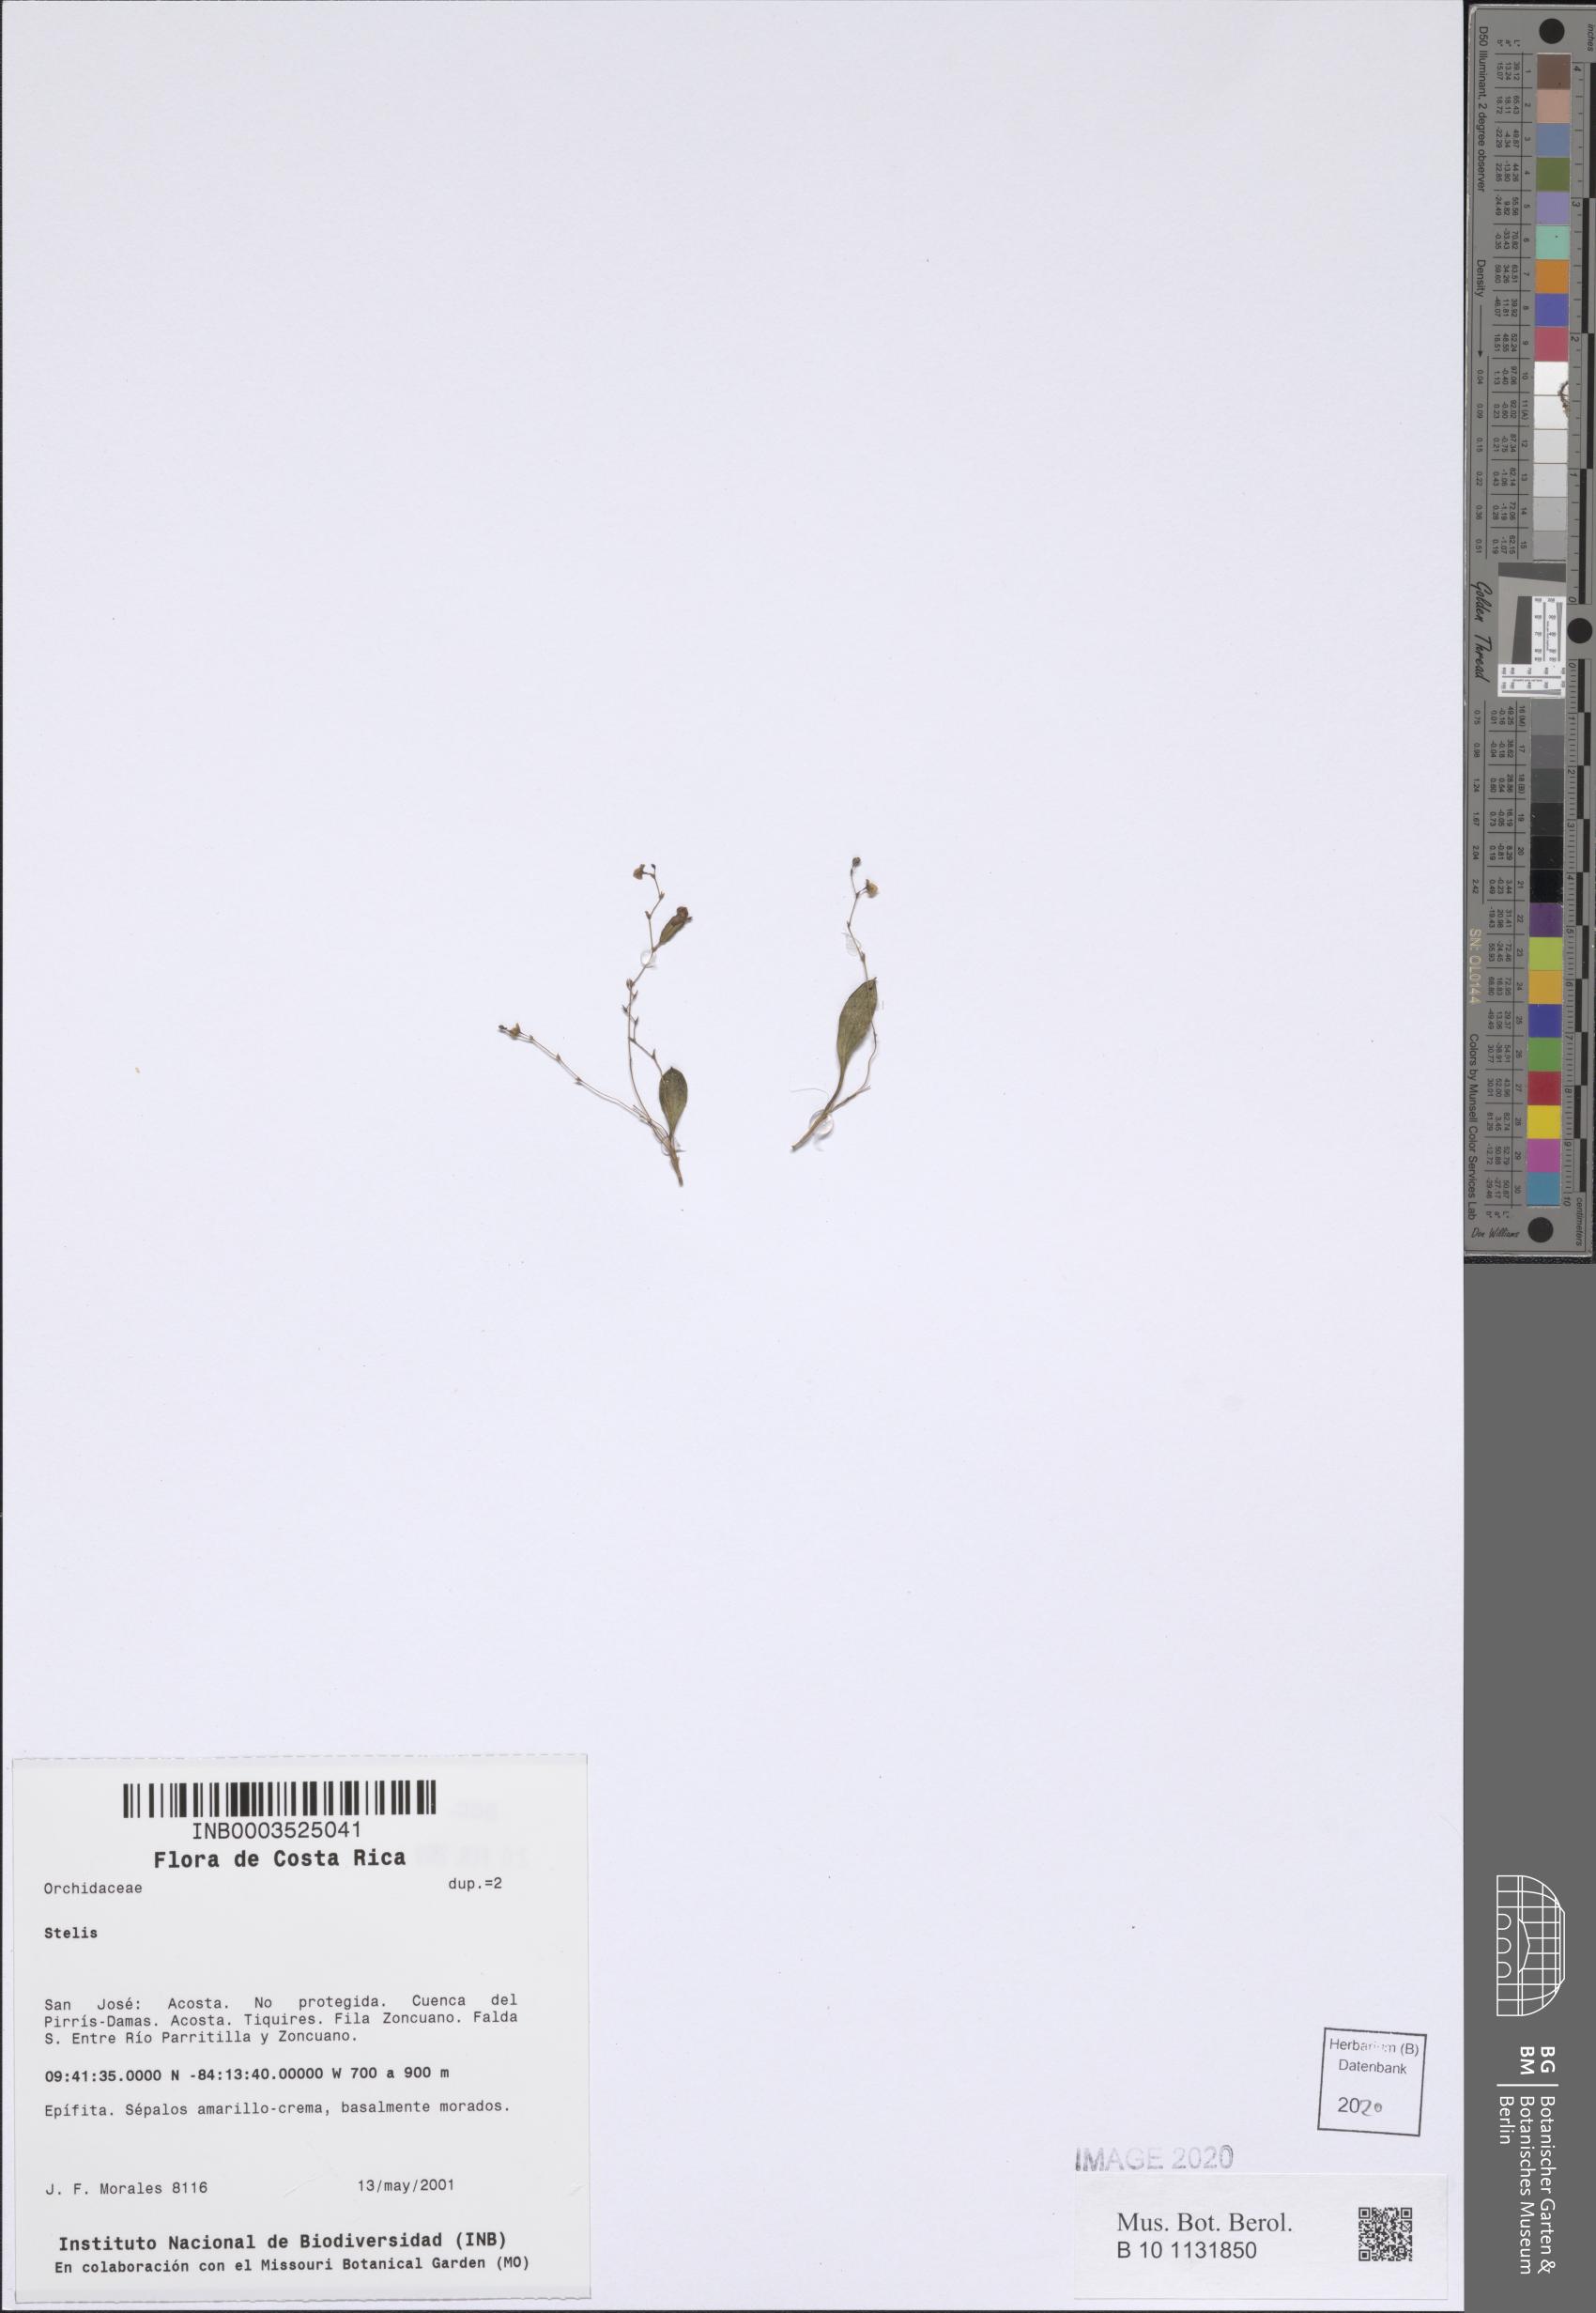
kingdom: Plantae
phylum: Tracheophyta
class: Liliopsida
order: Asparagales
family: Orchidaceae
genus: Stelis
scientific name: Stelis
